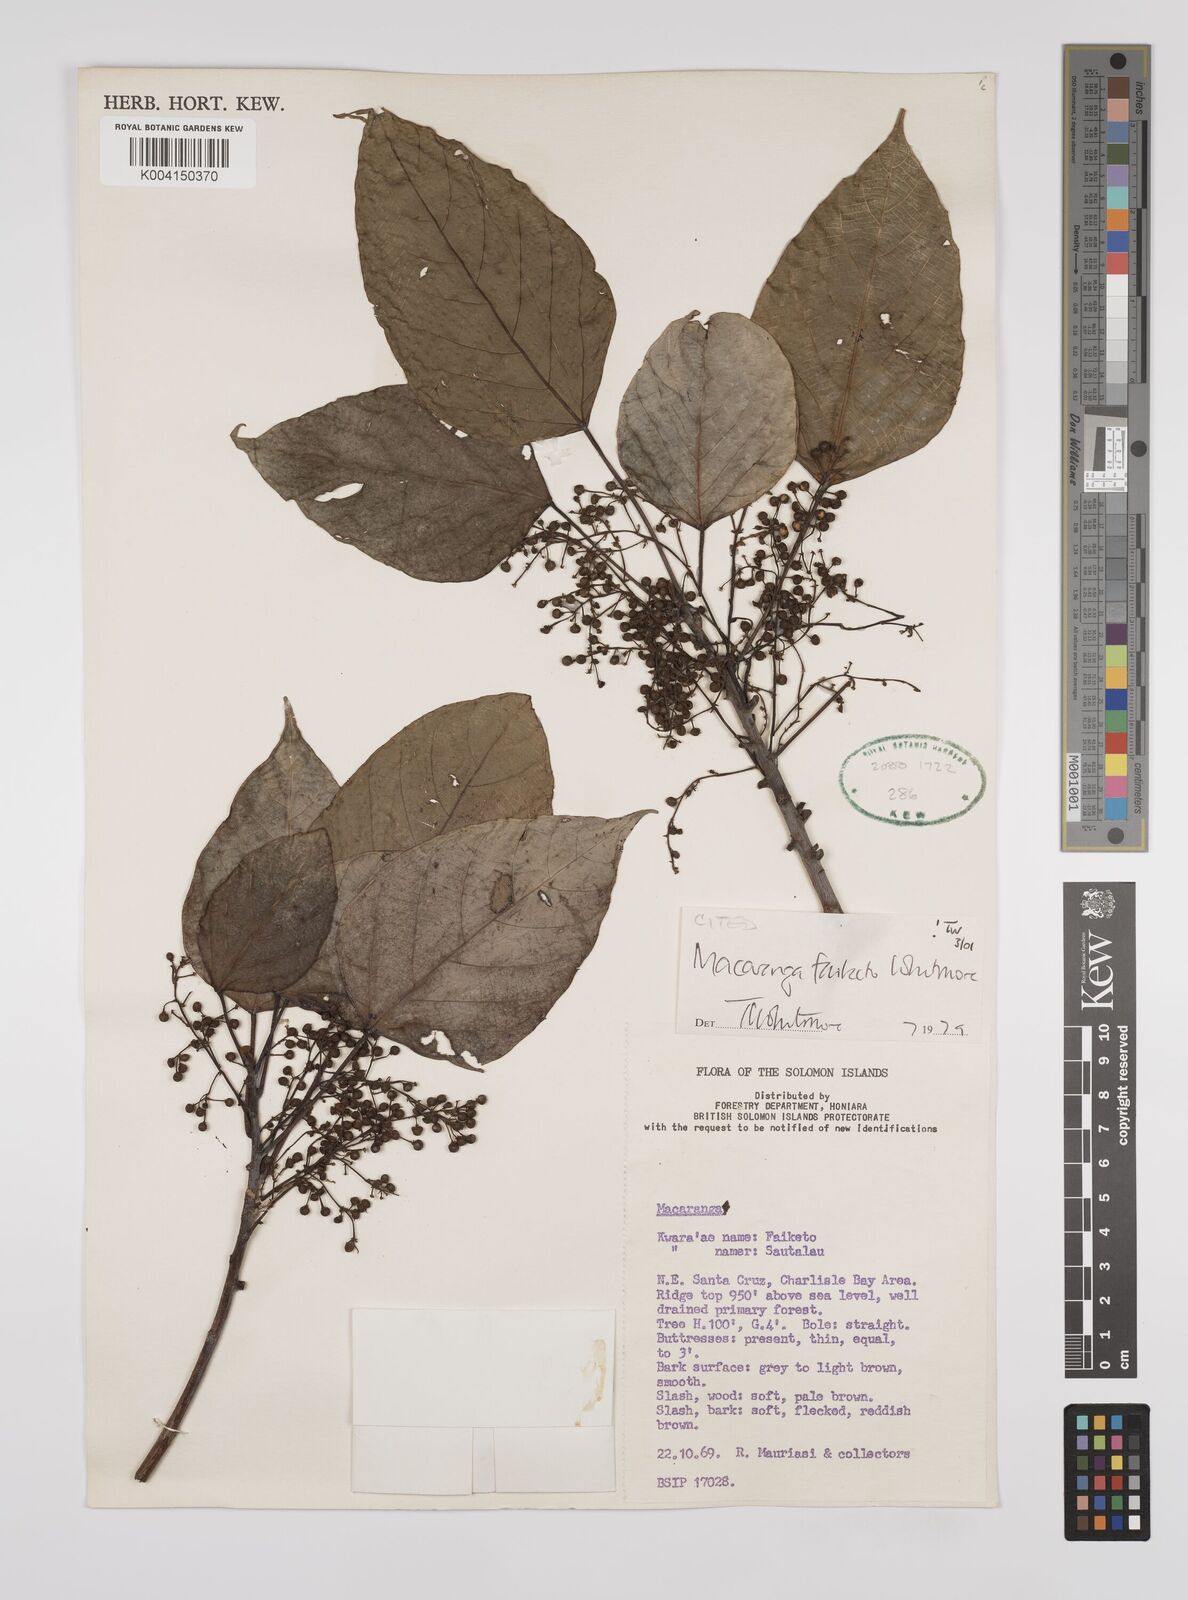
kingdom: Plantae
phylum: Tracheophyta
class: Magnoliopsida
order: Malpighiales
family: Euphorbiaceae
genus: Macaranga
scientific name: Macaranga faiketo
